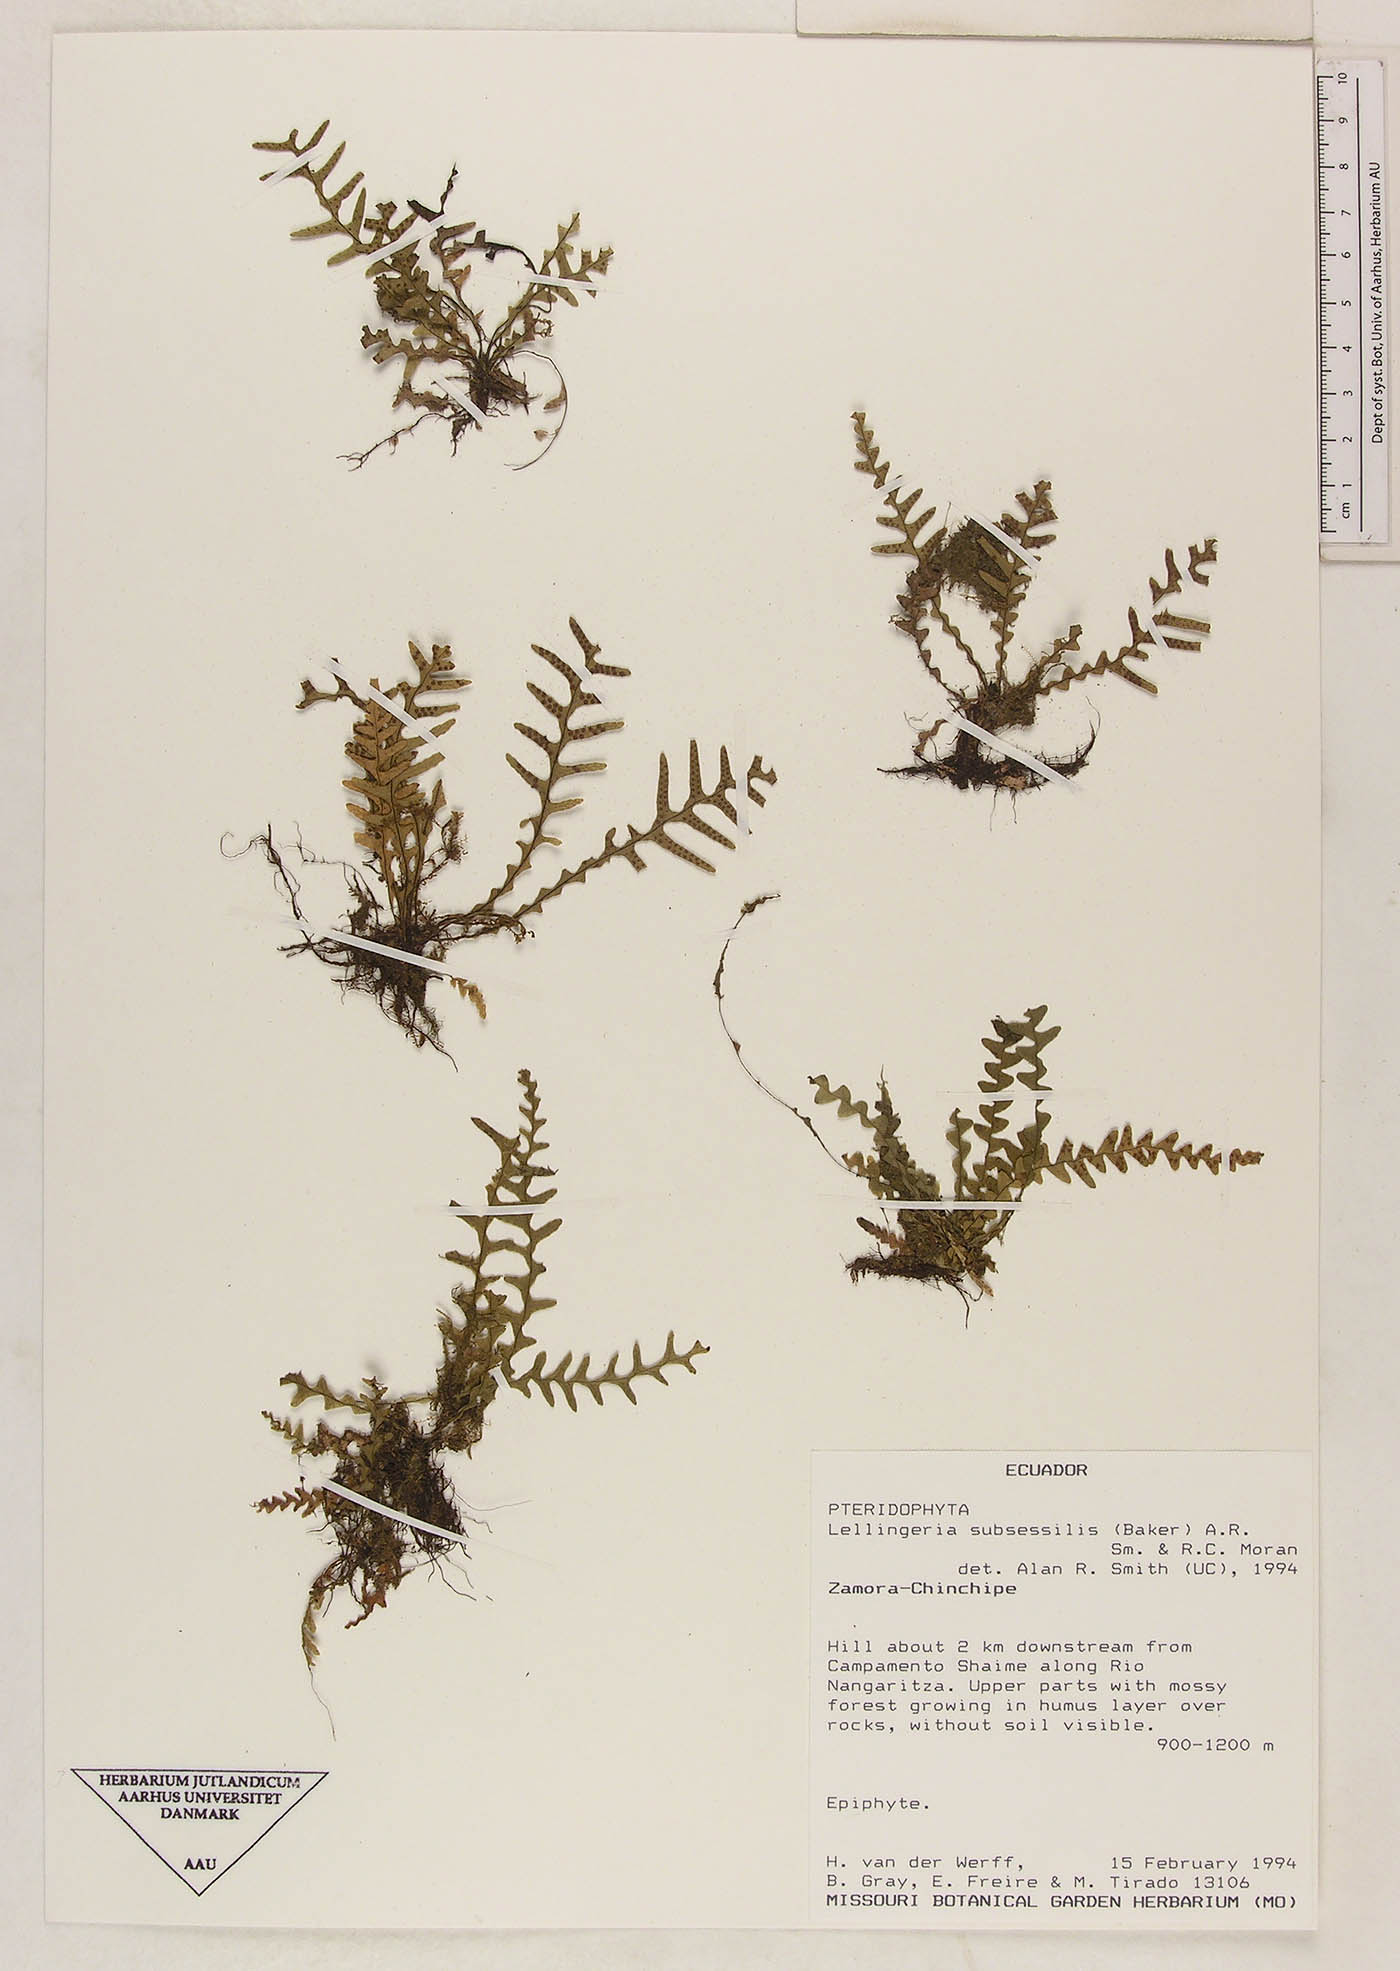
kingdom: Plantae
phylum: Tracheophyta
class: Polypodiopsida
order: Polypodiales
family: Polypodiaceae
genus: Lellingeria
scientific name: Lellingeria subsessilis
